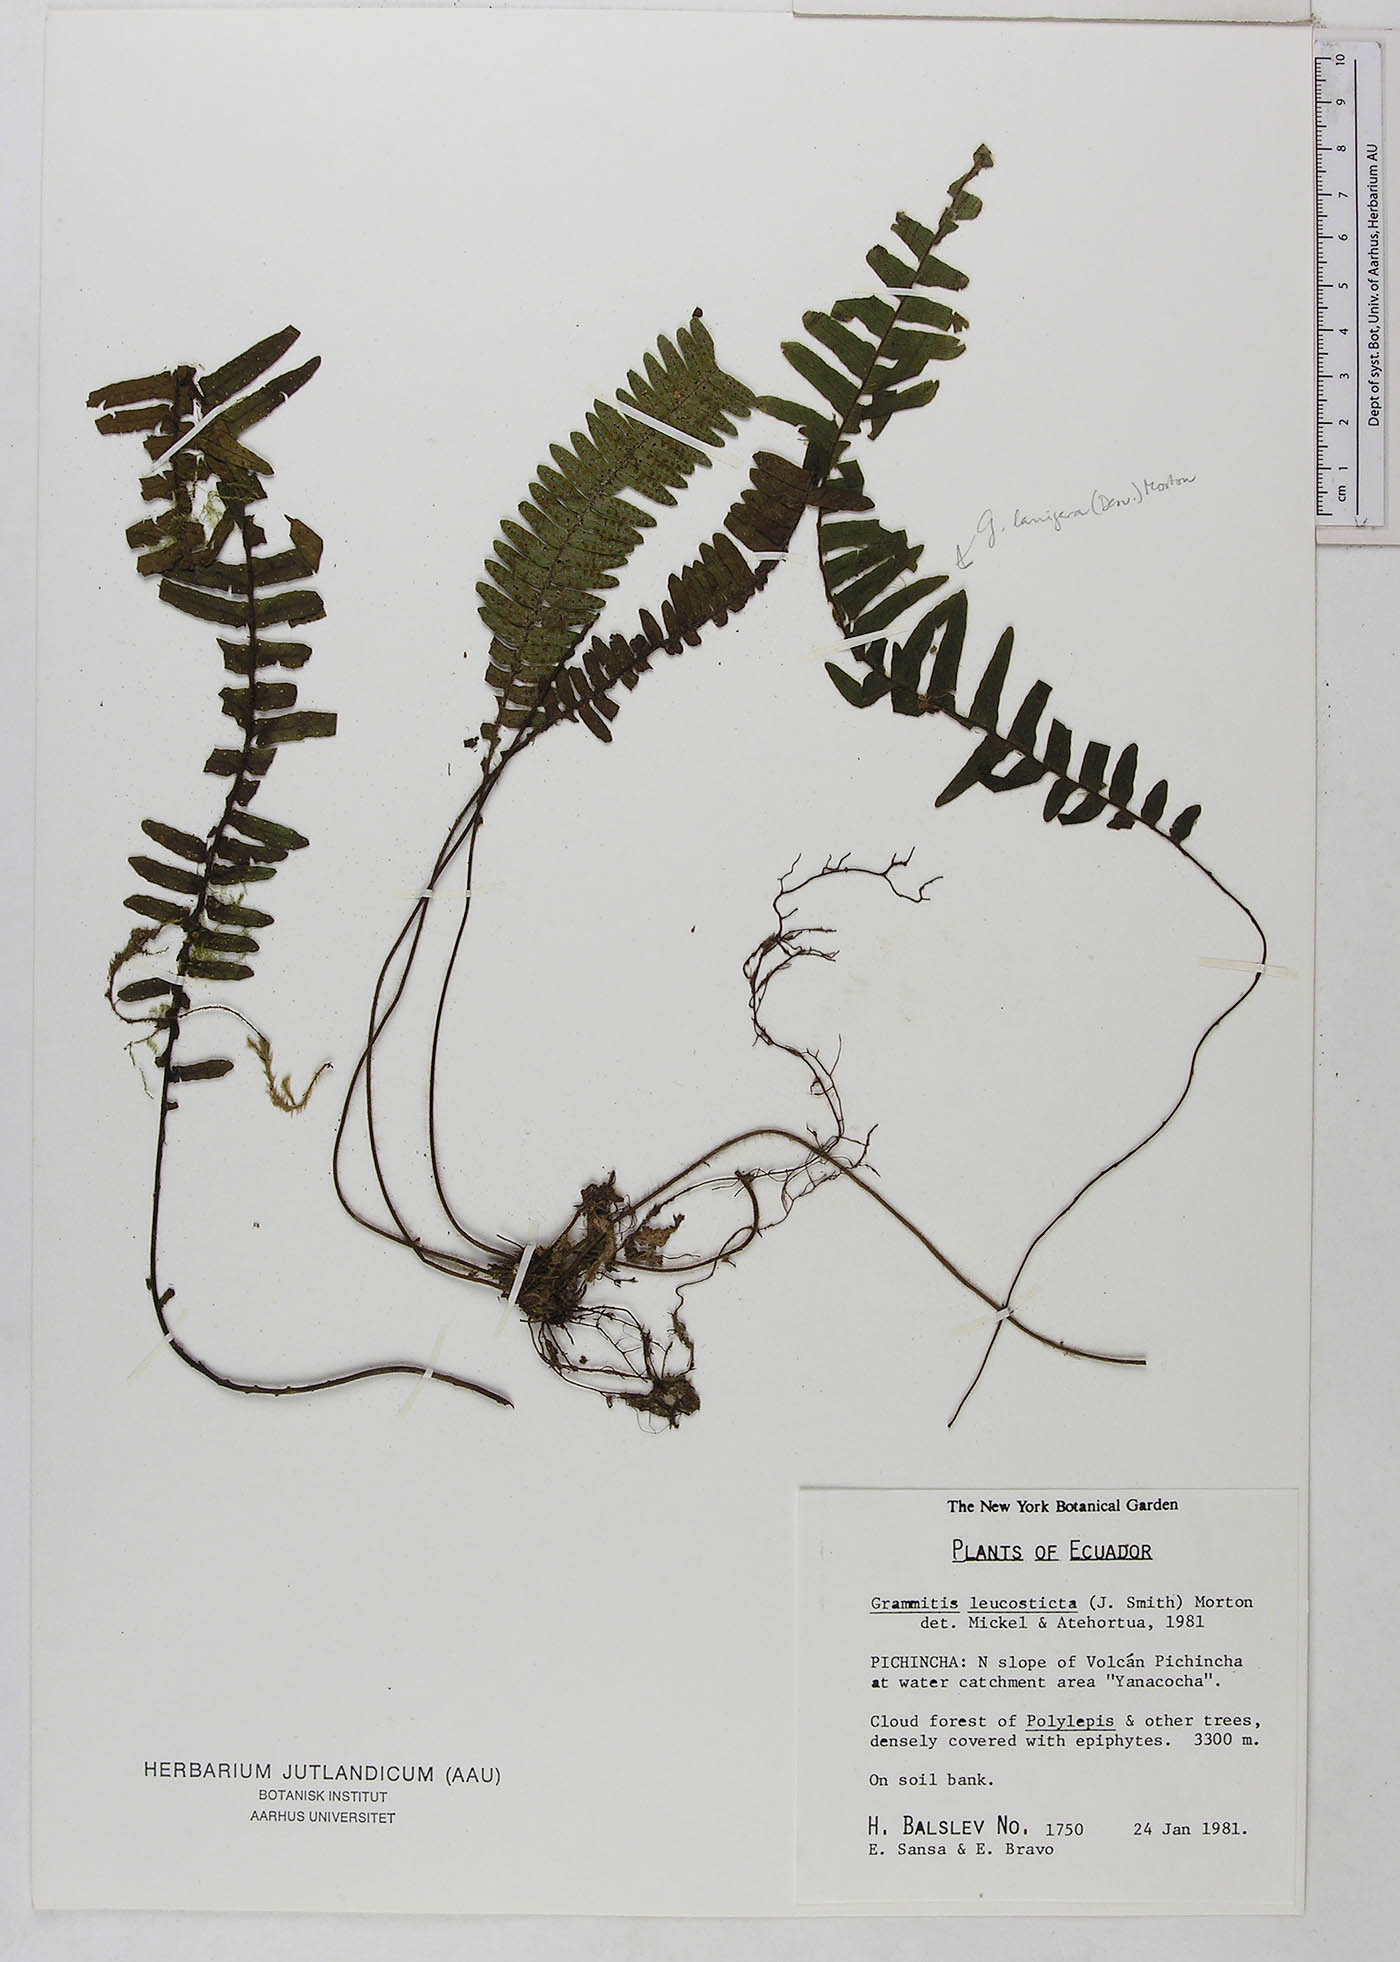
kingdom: Plantae
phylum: Tracheophyta
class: Polypodiopsida
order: Polypodiales
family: Polypodiaceae
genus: Mycopteris
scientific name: Mycopteris leucosticta
